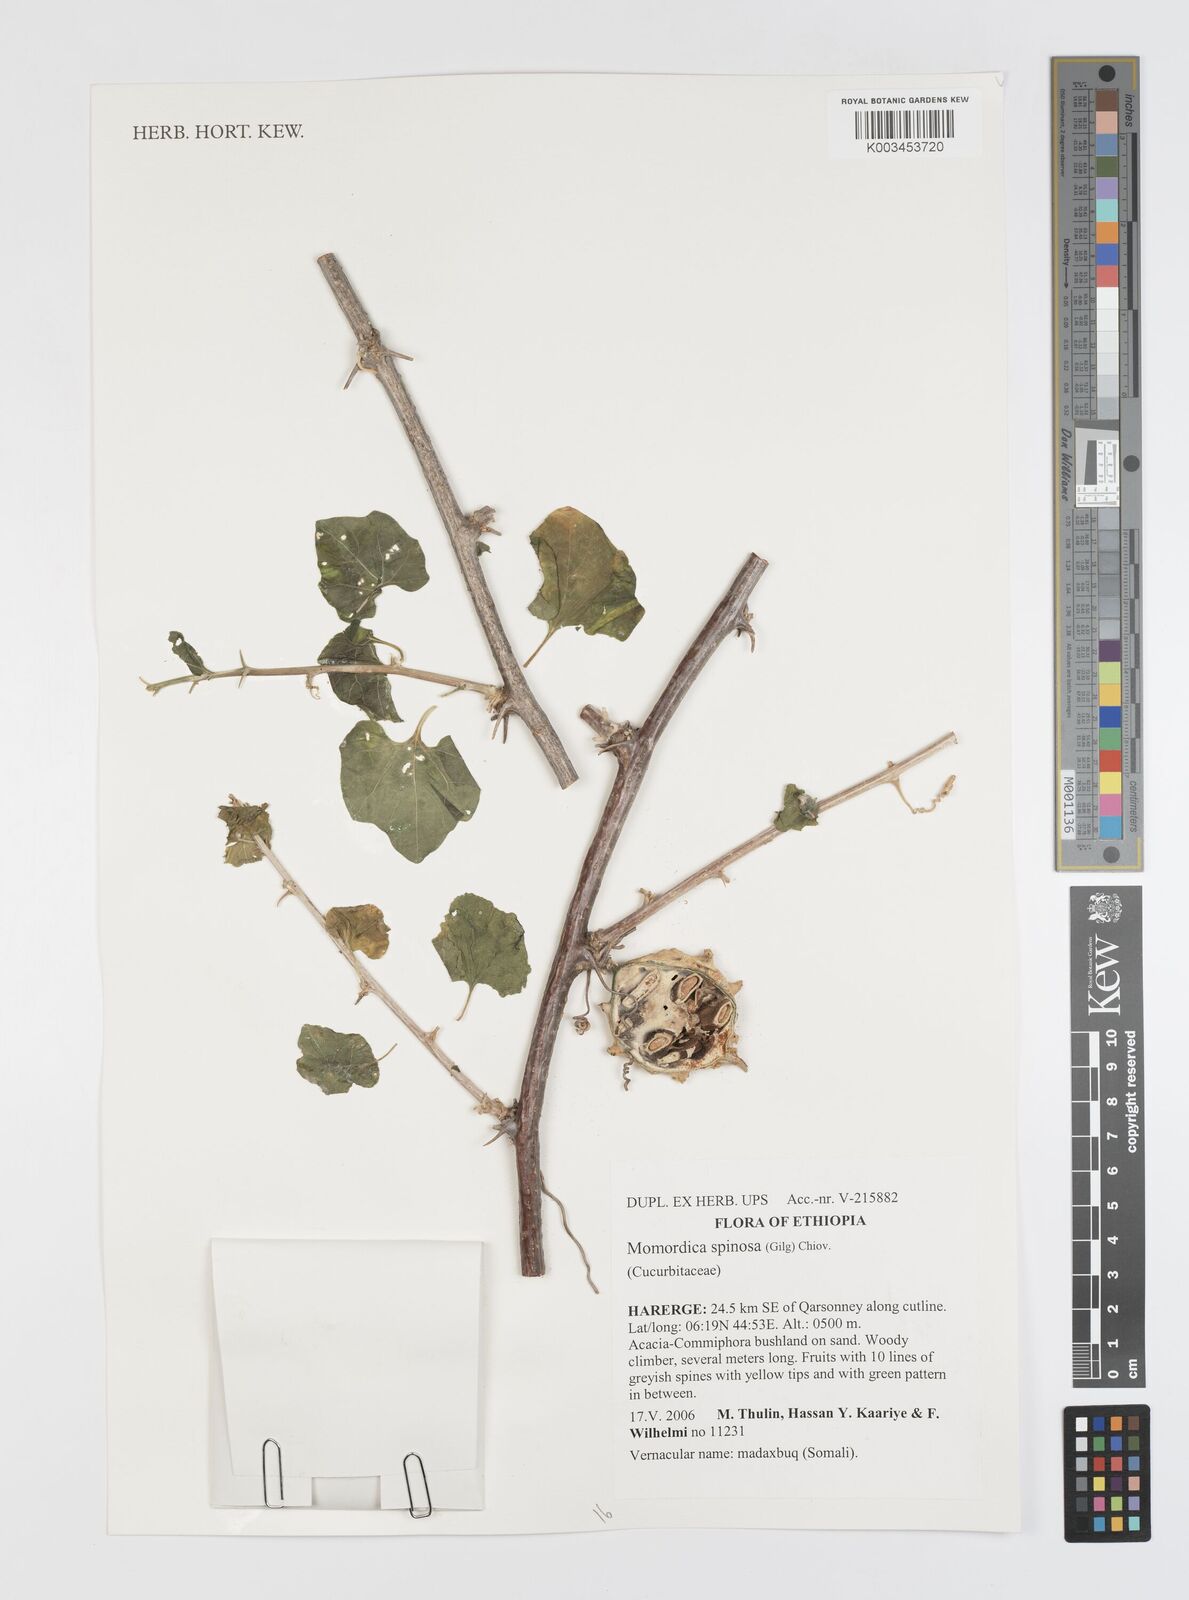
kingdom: Plantae
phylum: Tracheophyta
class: Magnoliopsida
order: Cucurbitales
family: Cucurbitaceae
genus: Momordica
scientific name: Momordica spinosa
